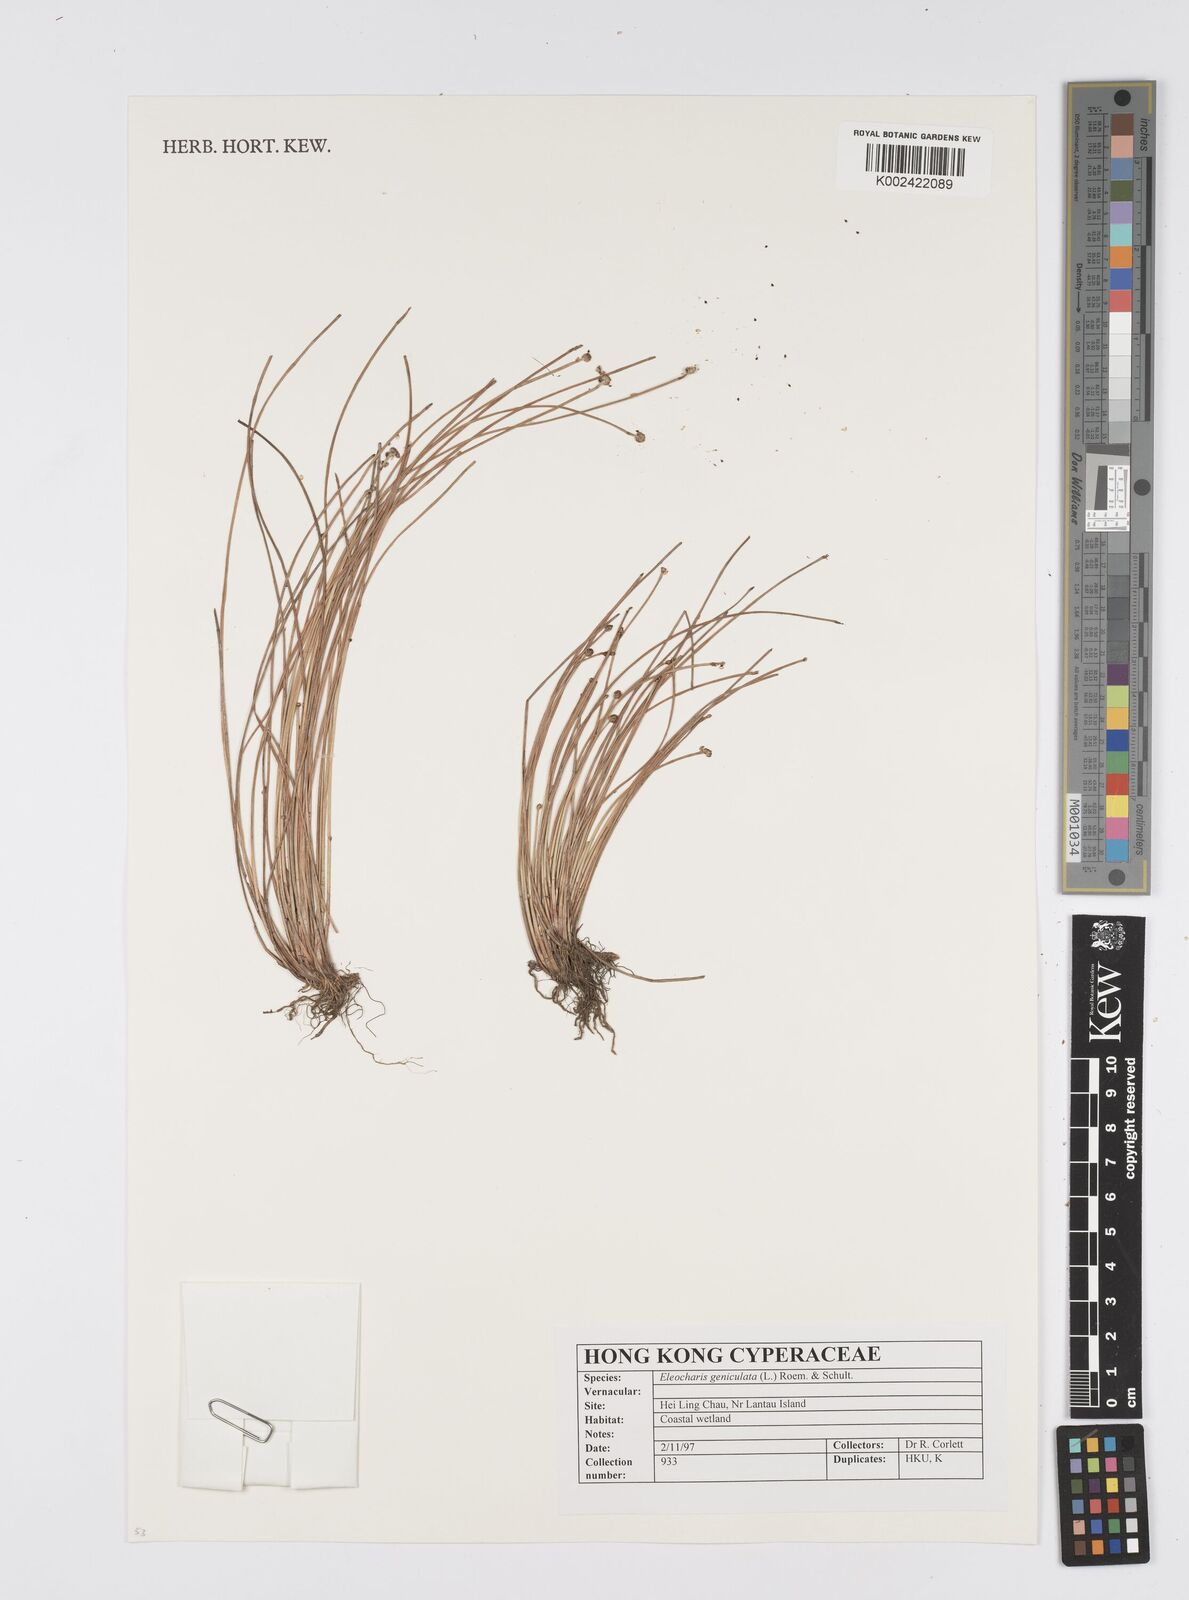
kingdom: Plantae
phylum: Tracheophyta
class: Liliopsida
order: Poales
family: Cyperaceae
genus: Eleocharis
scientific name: Eleocharis geniculata
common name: Canada spikesedge
